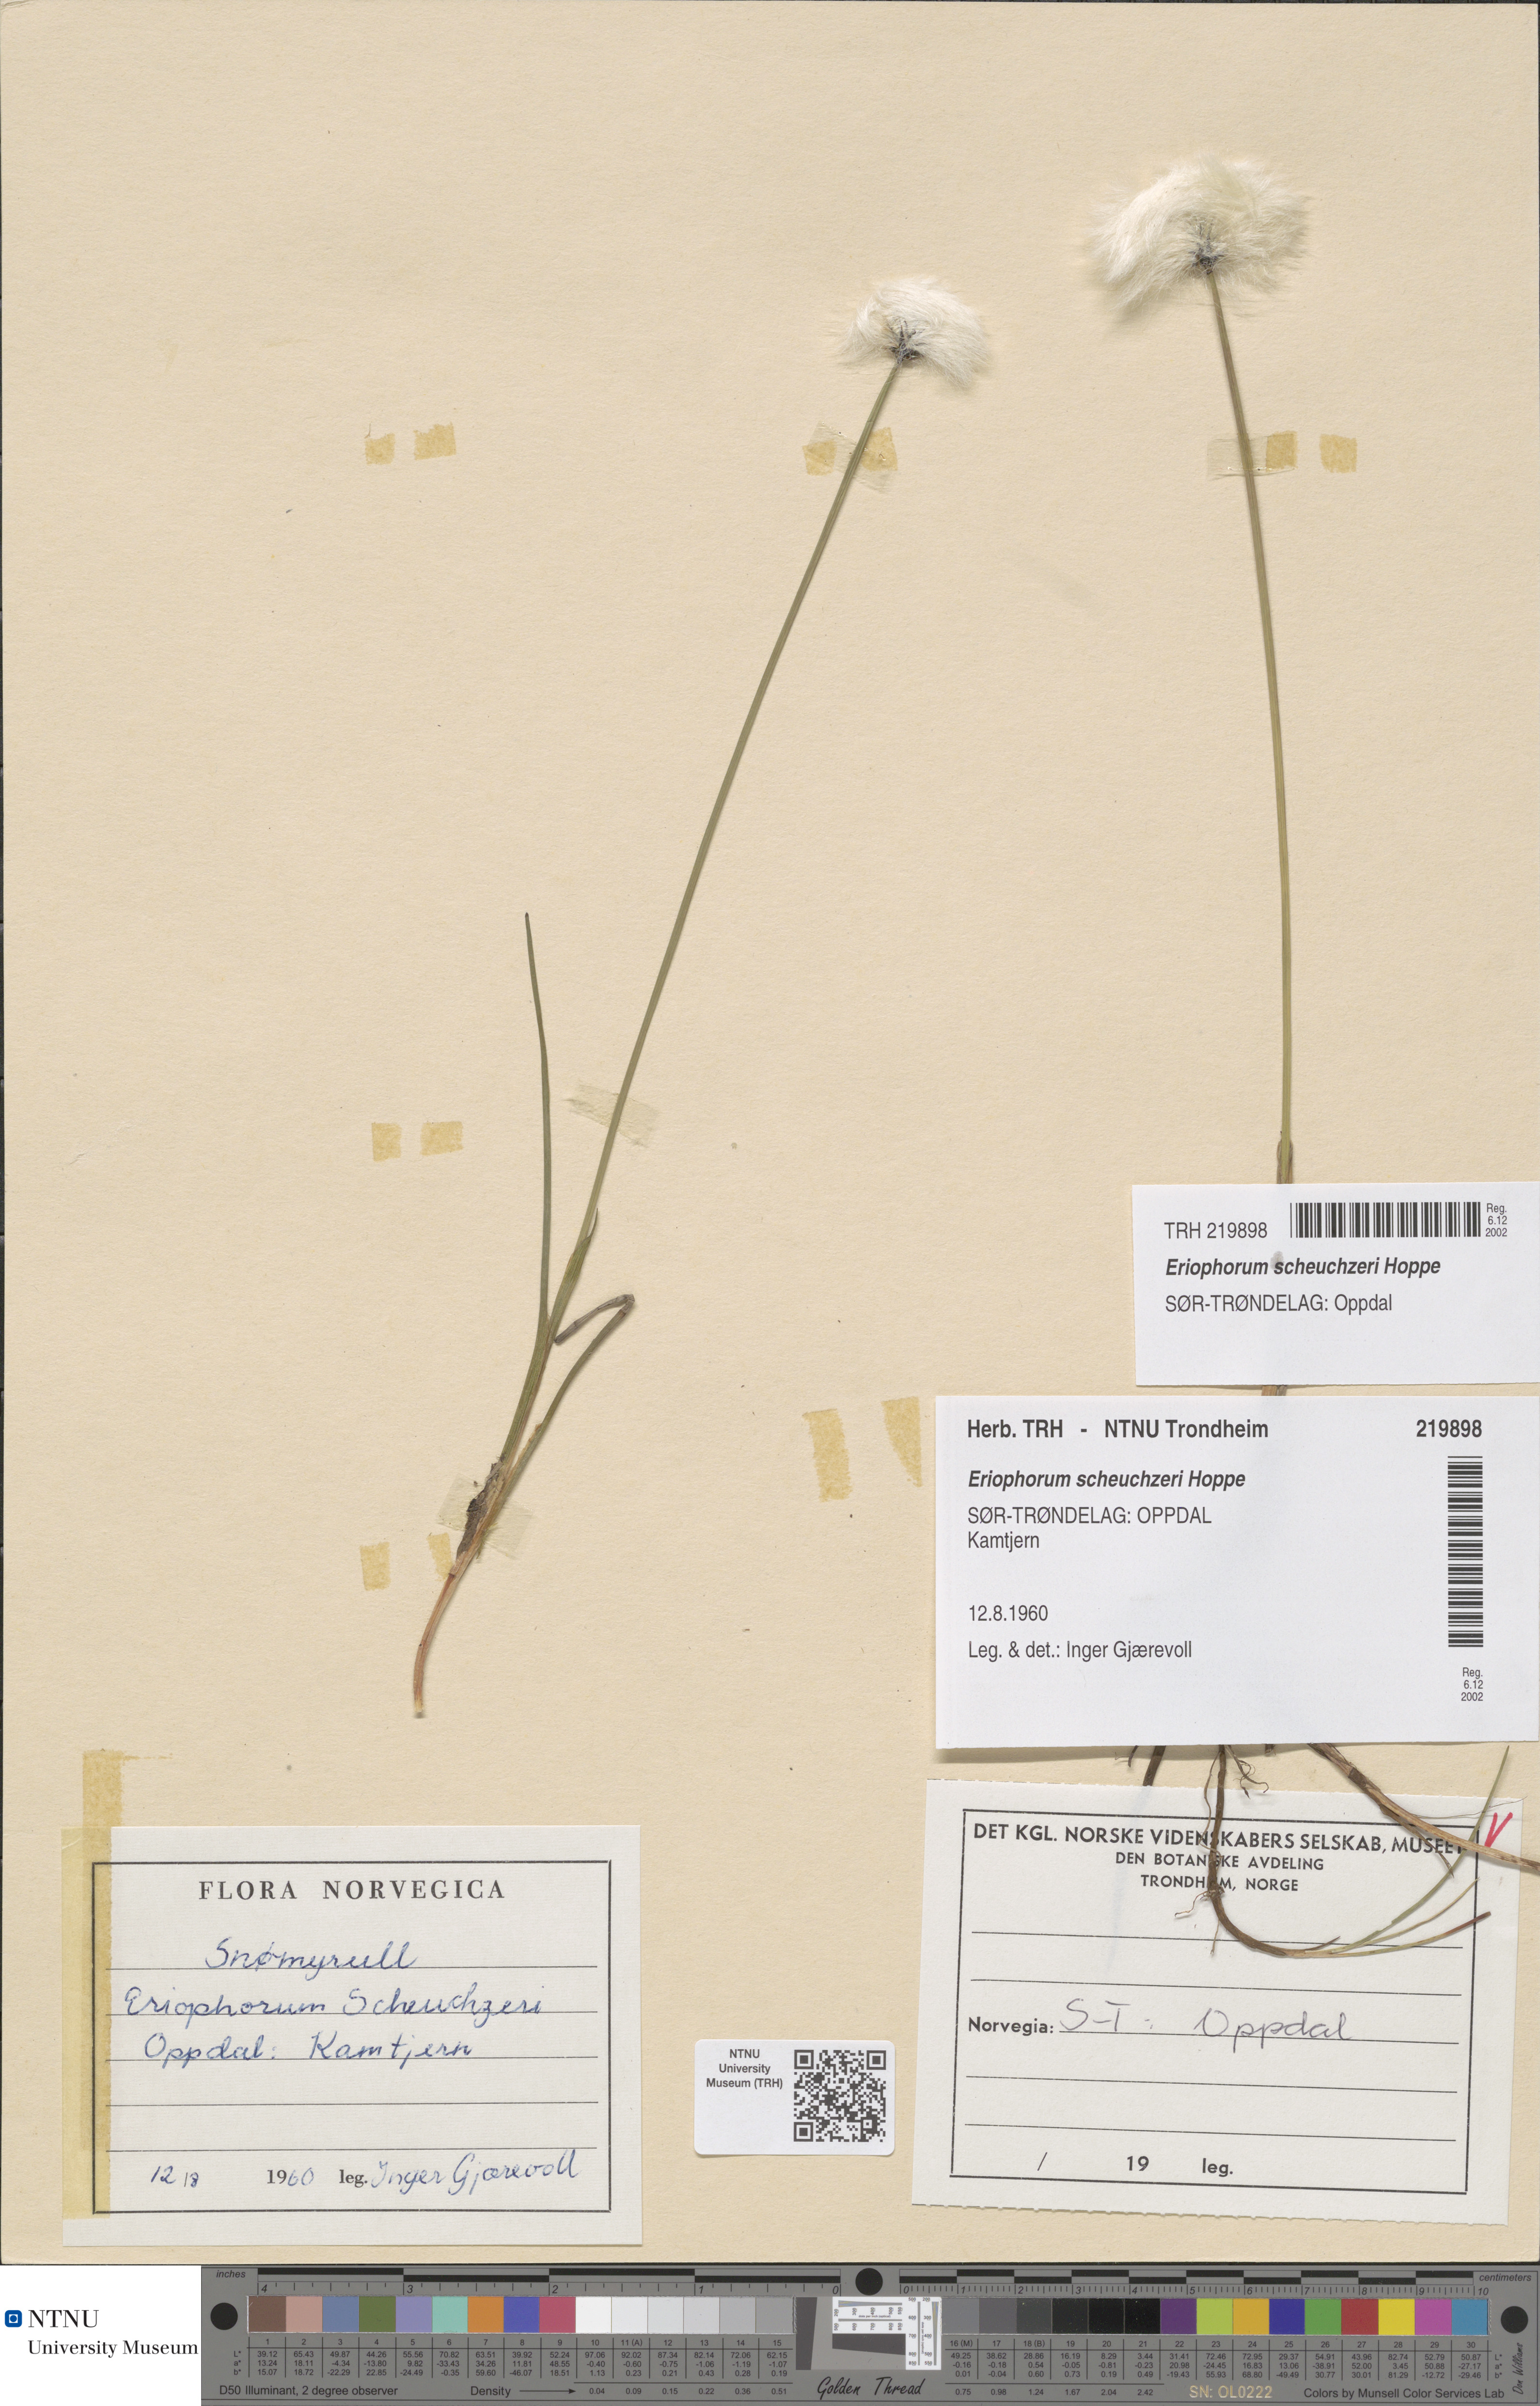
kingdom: Plantae
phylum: Tracheophyta
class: Liliopsida
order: Poales
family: Cyperaceae
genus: Eriophorum
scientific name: Eriophorum scheuchzeri
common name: Scheuchzer's cottongrass
